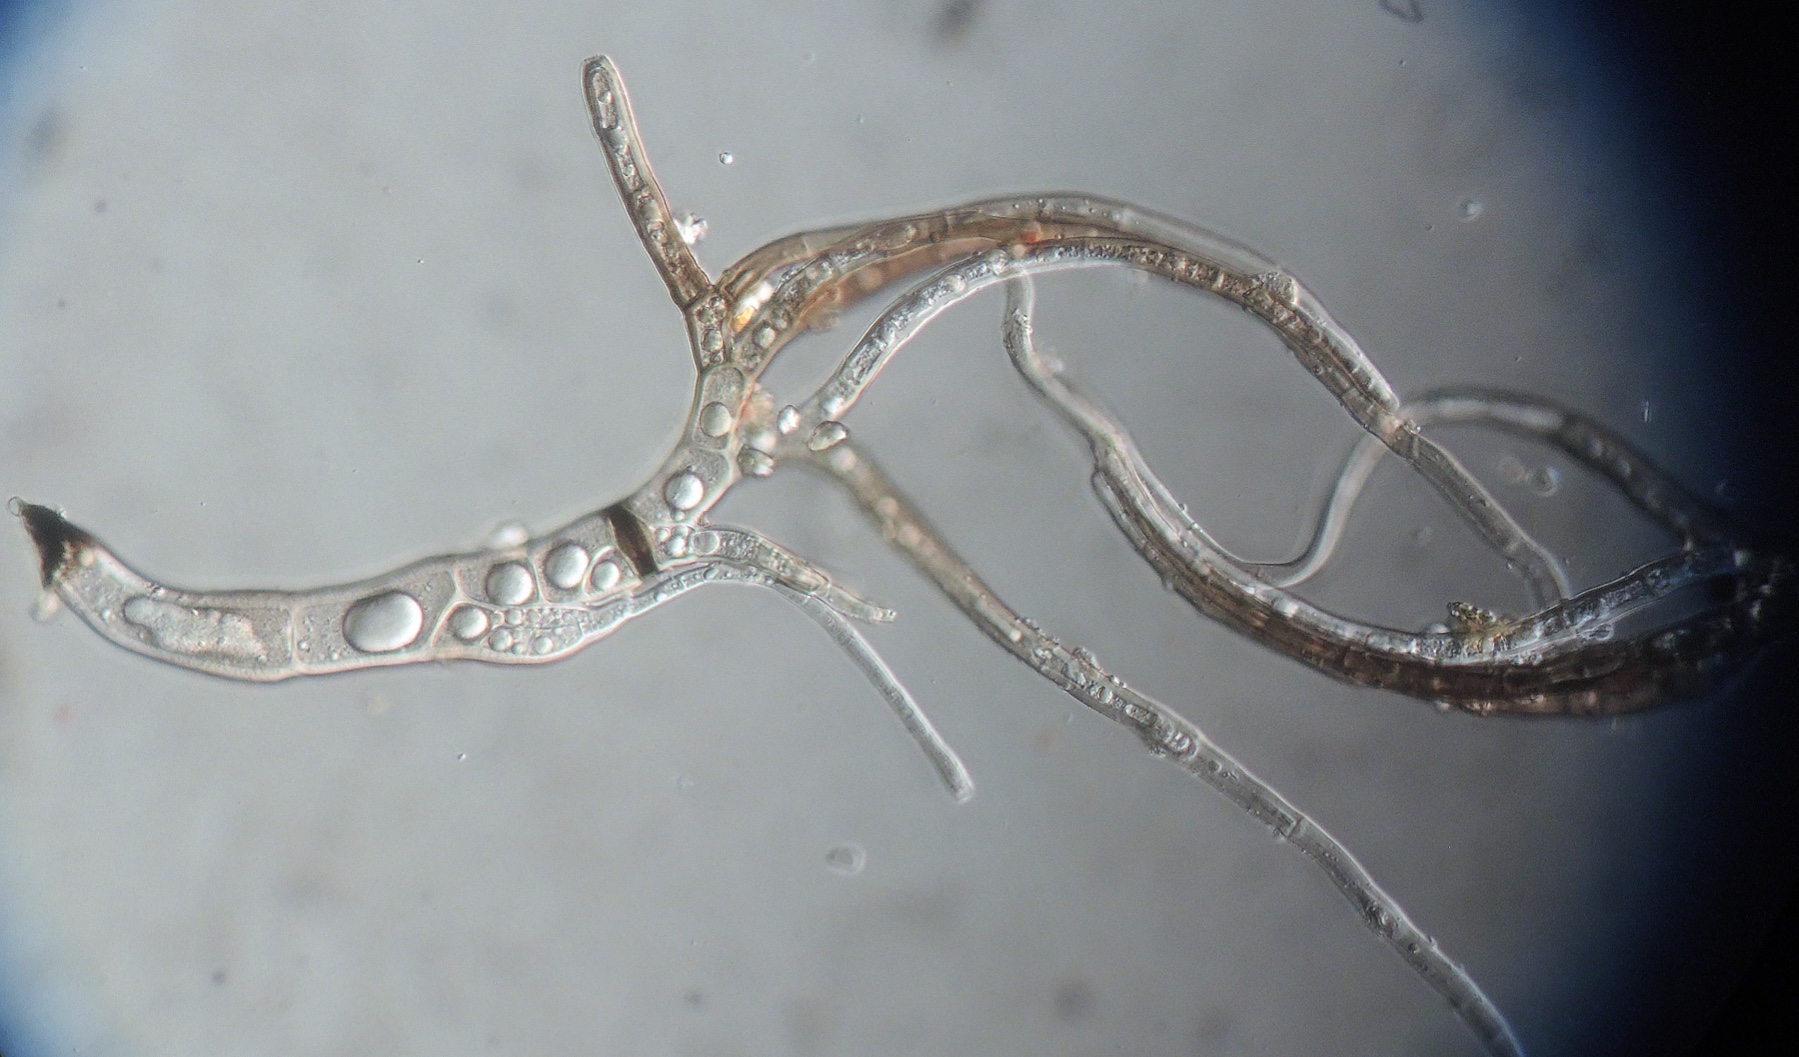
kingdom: Fungi
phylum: Ascomycota
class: Laboulbeniomycetes
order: Laboulbeniales
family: Laboulbeniaceae
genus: Laboulbenia
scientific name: Laboulbenia pseudomasci
